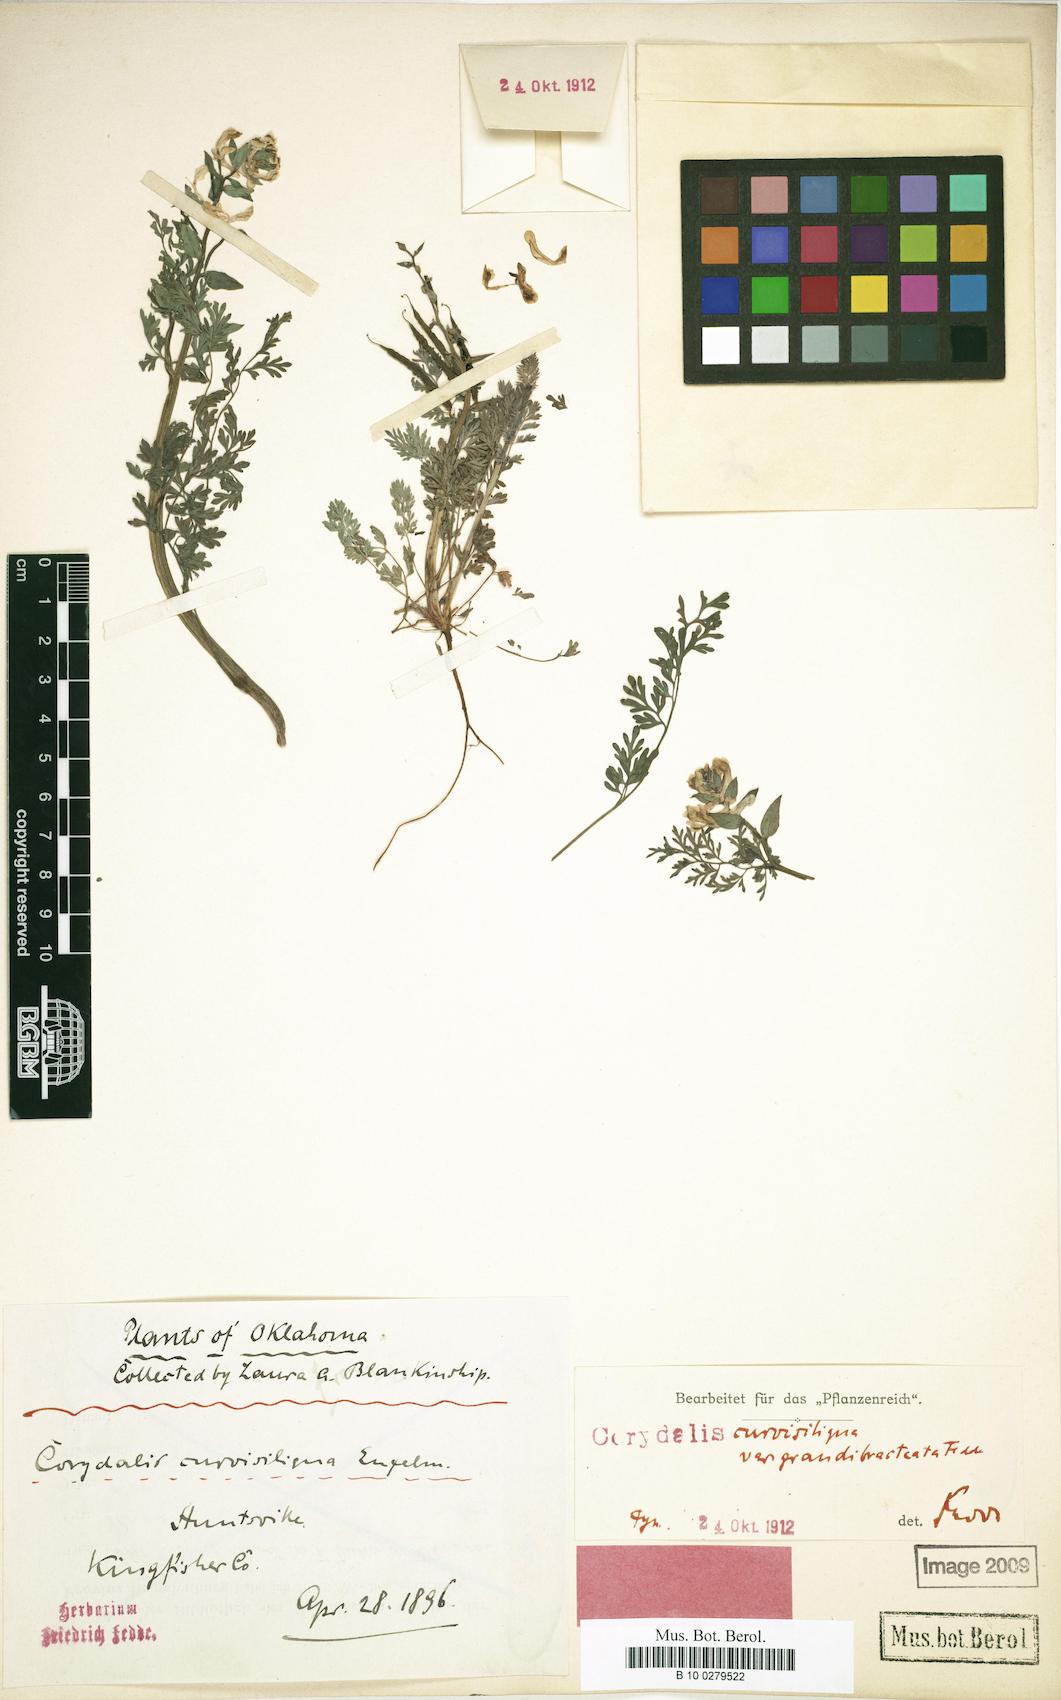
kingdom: Plantae
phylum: Tracheophyta
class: Magnoliopsida
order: Ranunculales
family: Papaveraceae
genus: Corydalis
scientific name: Corydalis micrantha
